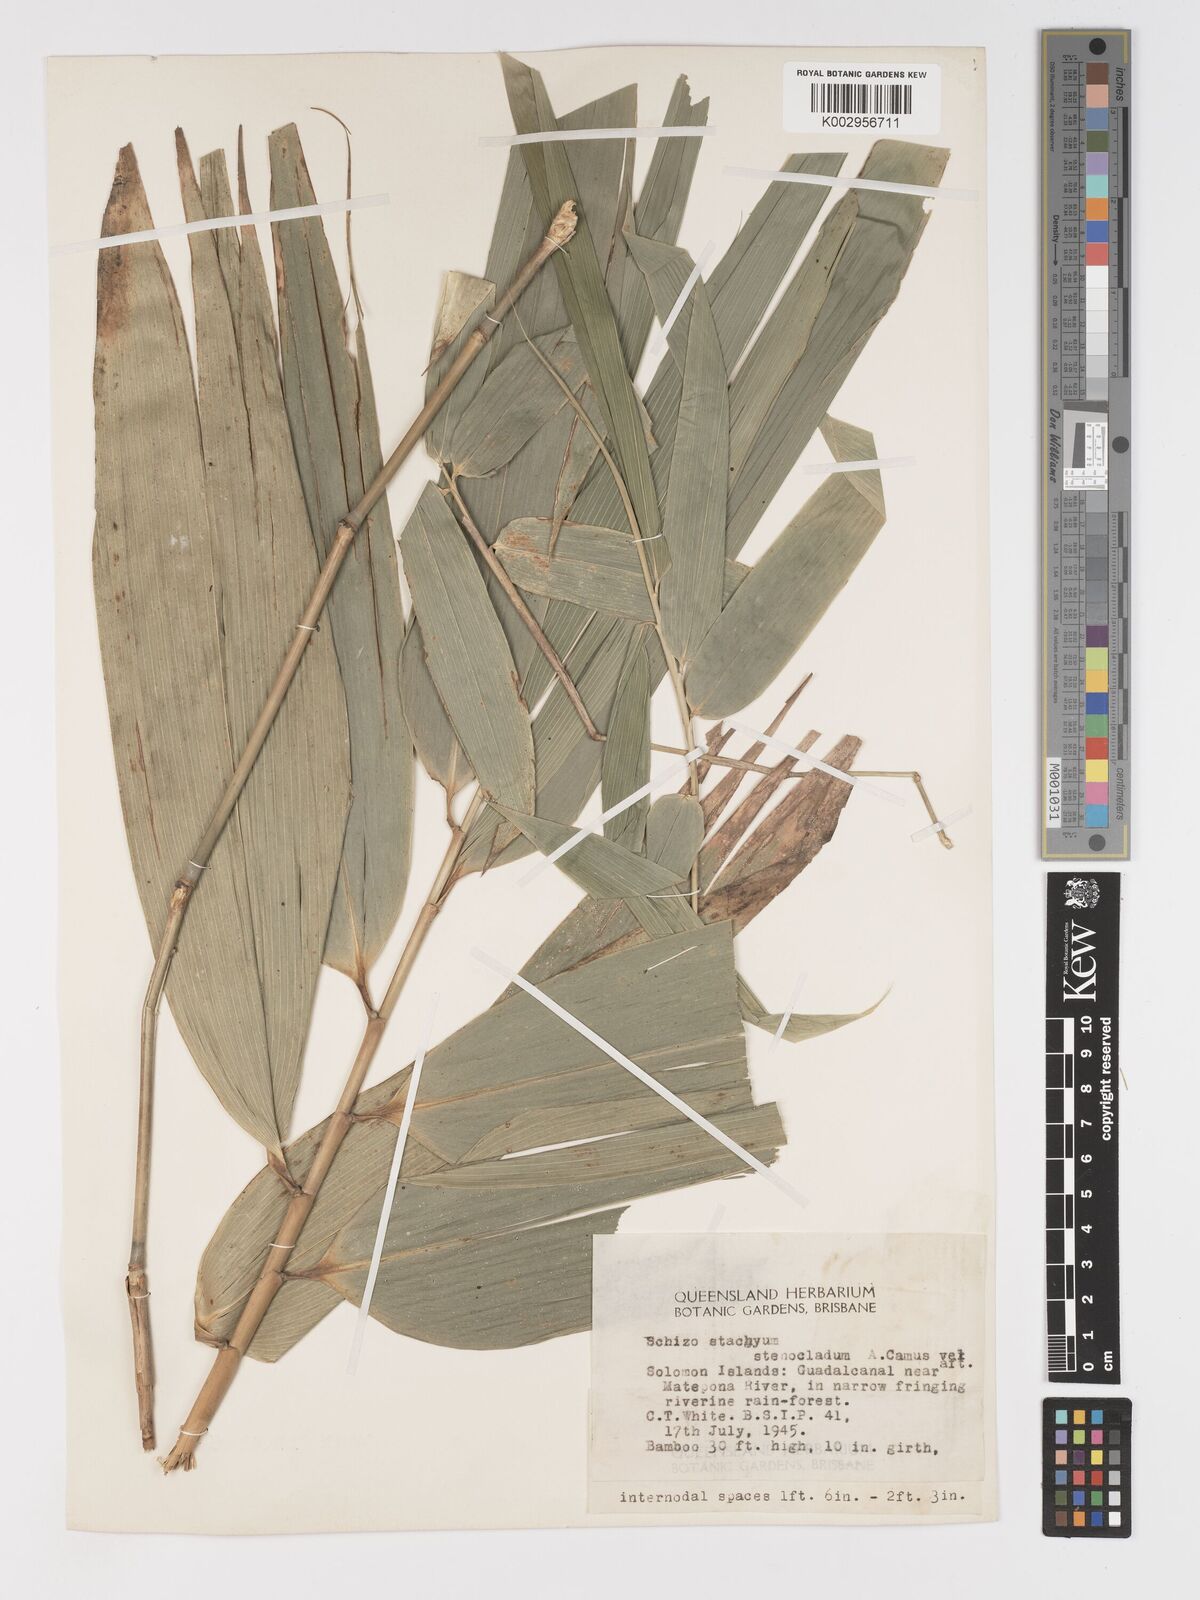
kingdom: Plantae
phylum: Tracheophyta
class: Liliopsida
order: Poales
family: Poaceae
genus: Schizostachyum
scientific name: Schizostachyum lima
